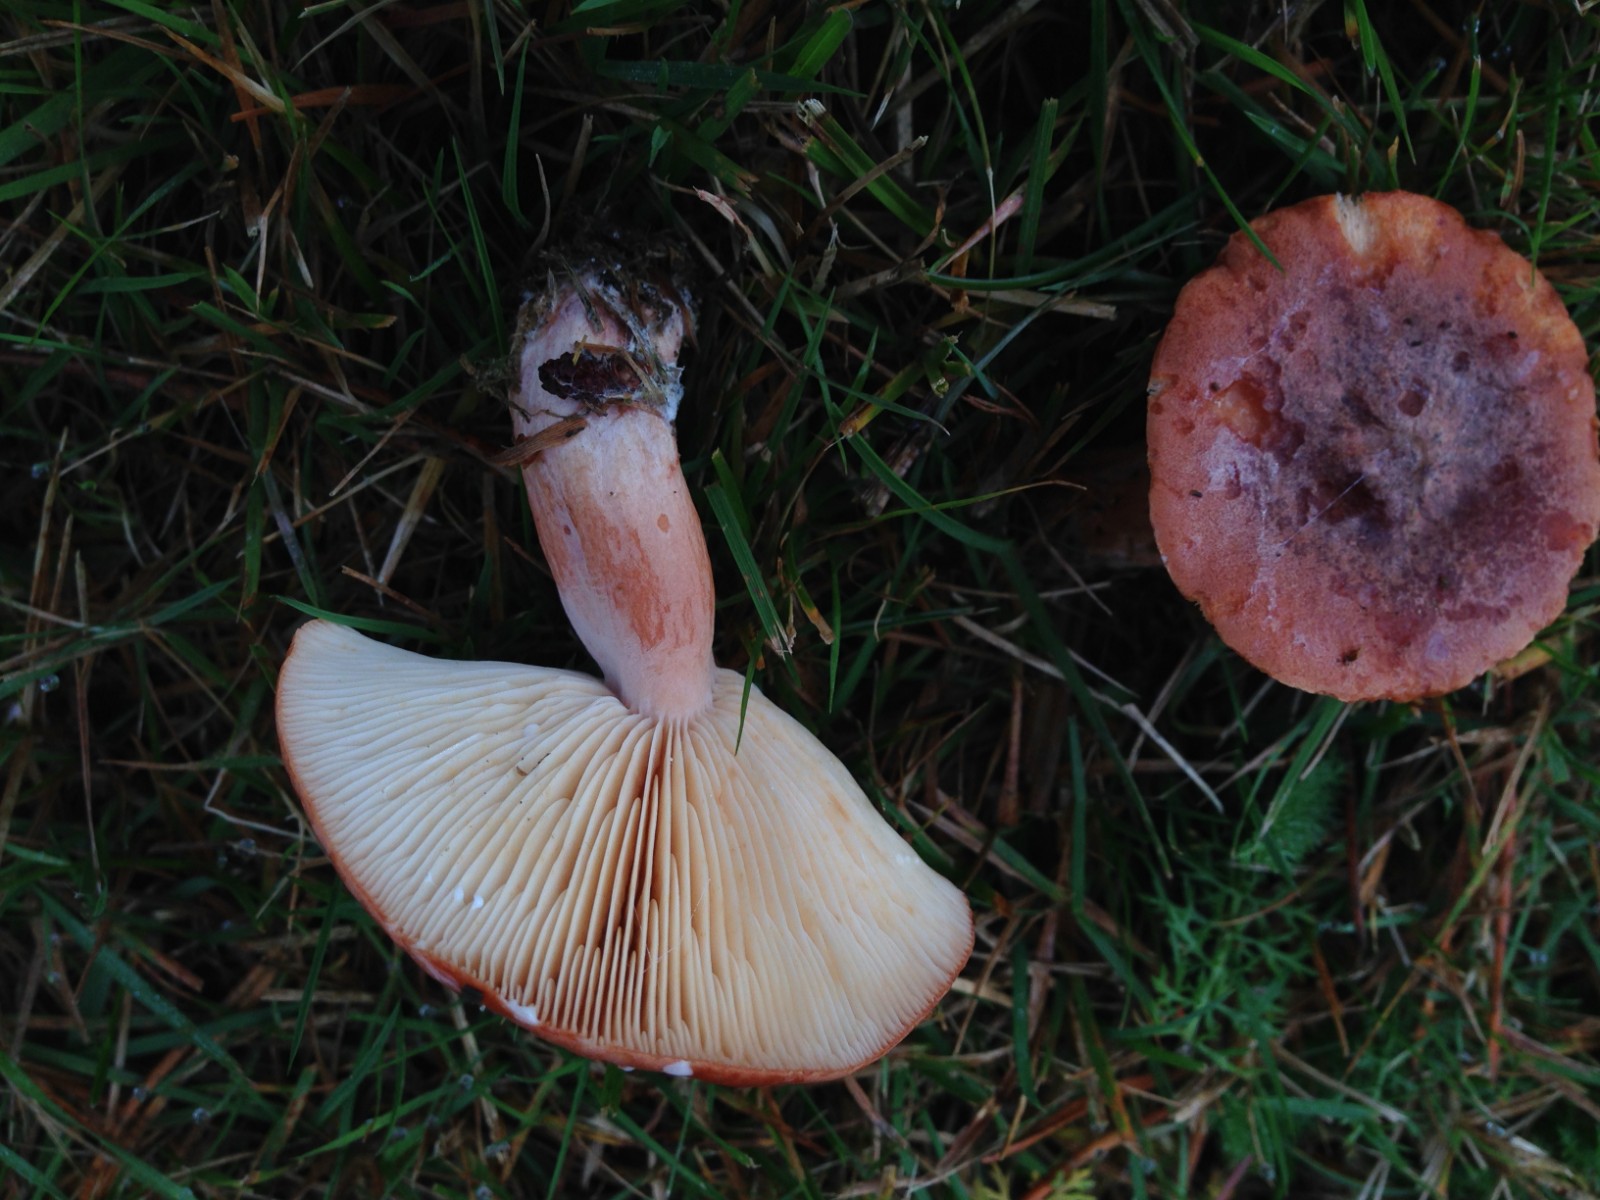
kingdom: Fungi
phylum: Basidiomycota
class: Agaricomycetes
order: Russulales
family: Russulaceae
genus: Lactarius
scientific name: Lactarius rufus
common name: rødbrun mælkehat
